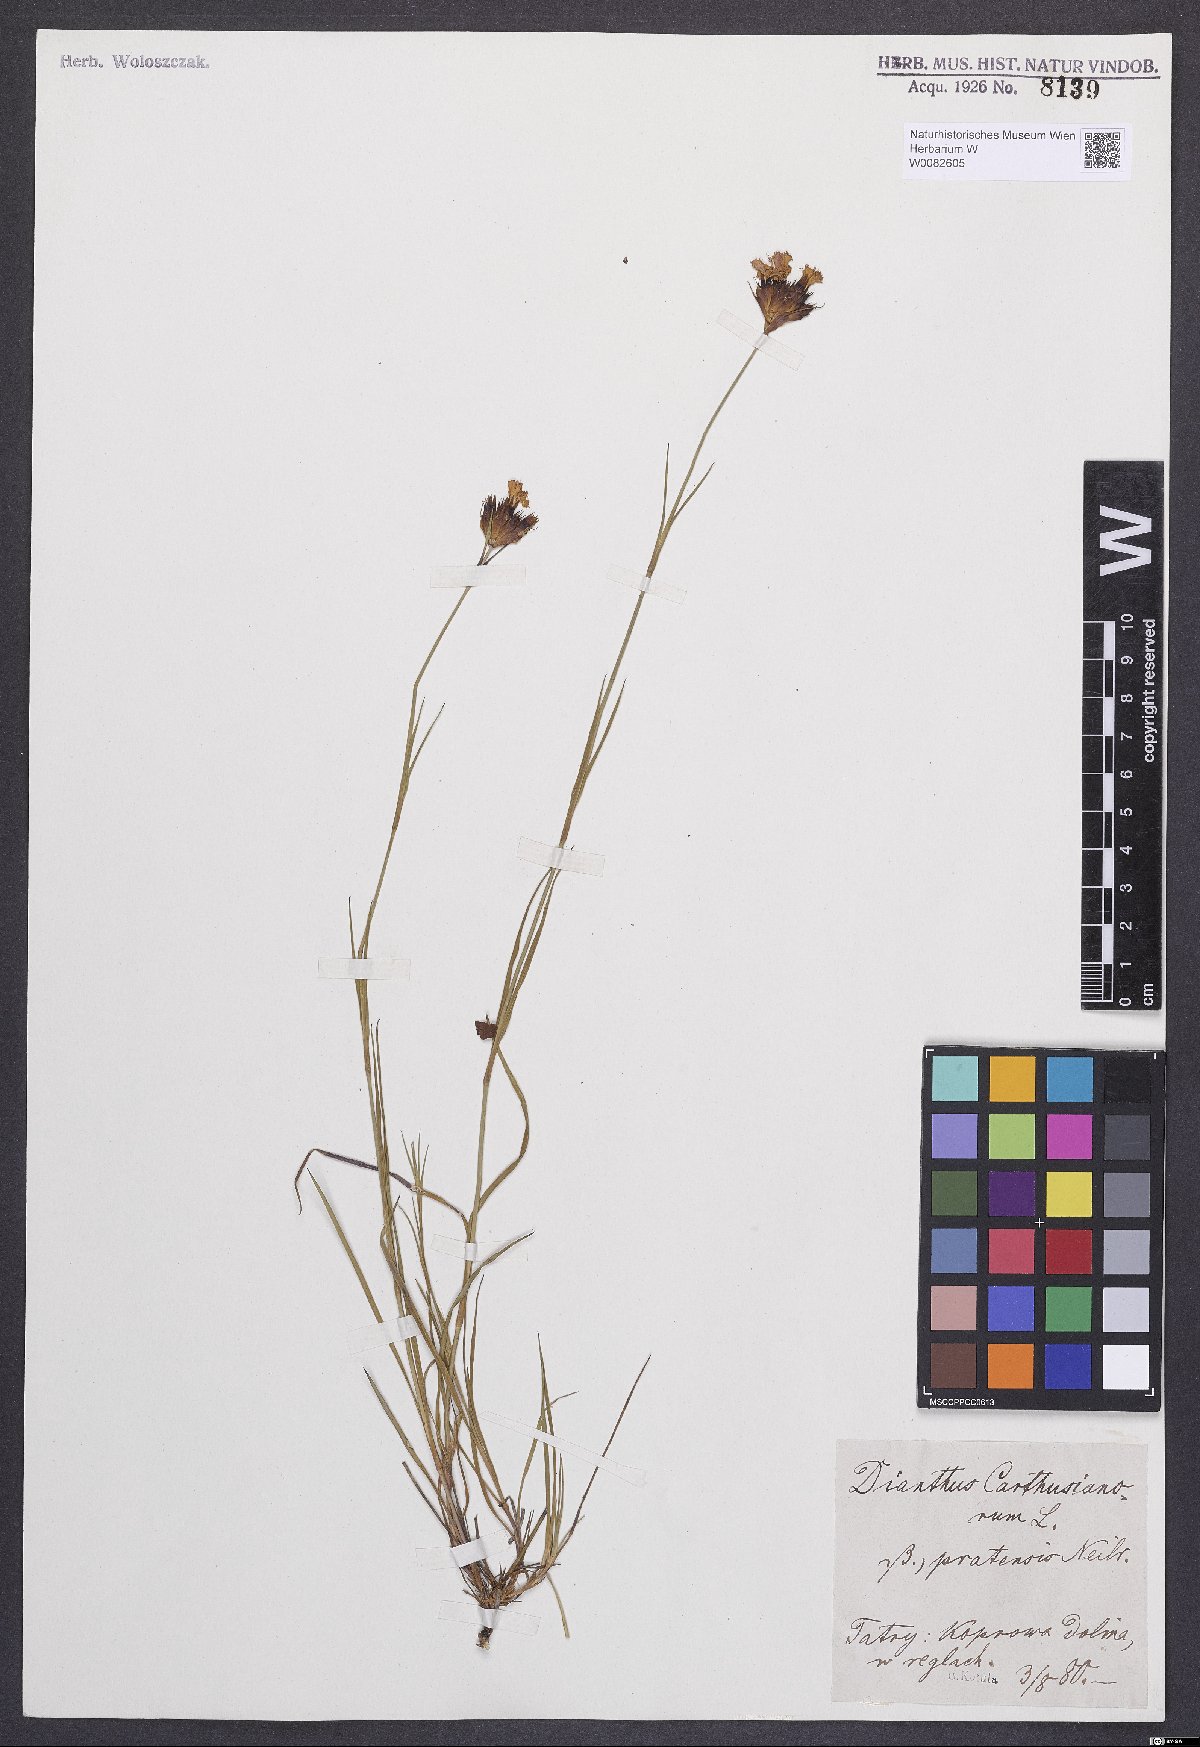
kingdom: Plantae
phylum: Tracheophyta
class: Magnoliopsida
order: Caryophyllales
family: Caryophyllaceae
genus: Dianthus
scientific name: Dianthus carthusianorum
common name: Carthusian pink
